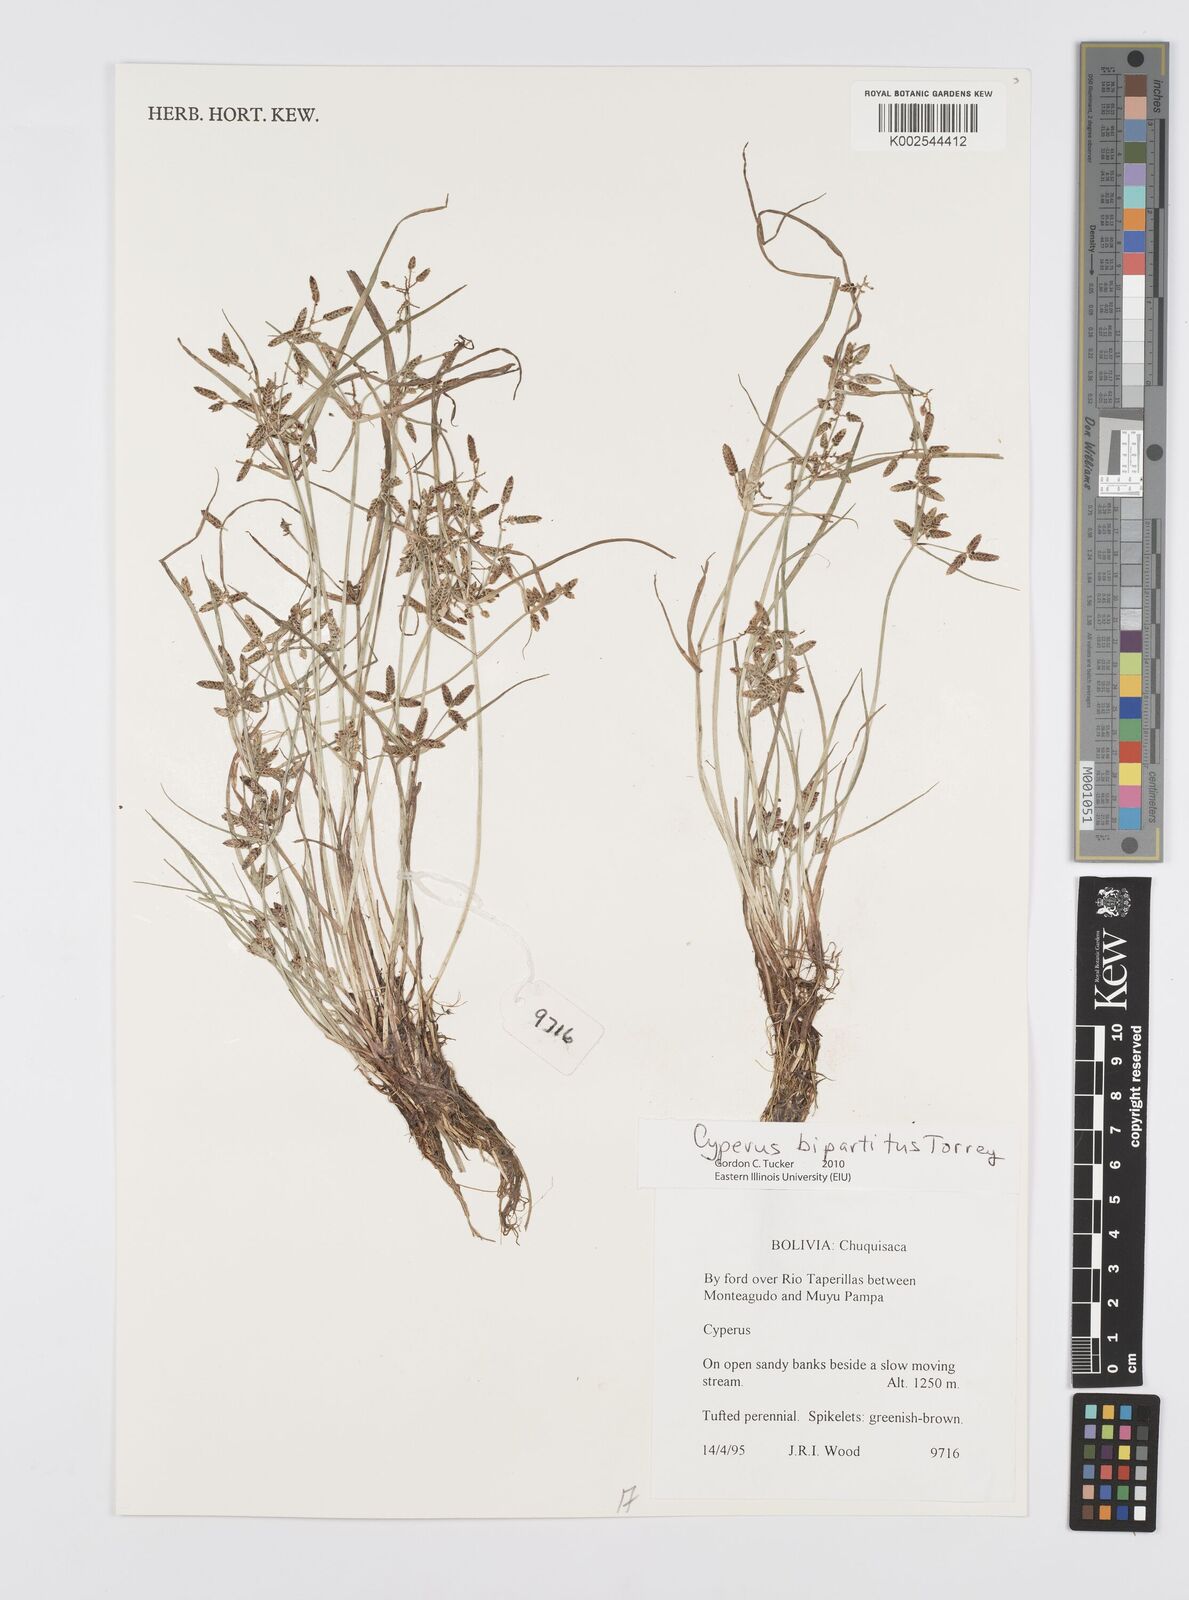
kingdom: Plantae
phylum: Tracheophyta
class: Liliopsida
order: Poales
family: Cyperaceae
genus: Cyperus
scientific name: Cyperus bipartitus
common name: Brook flatsedge
